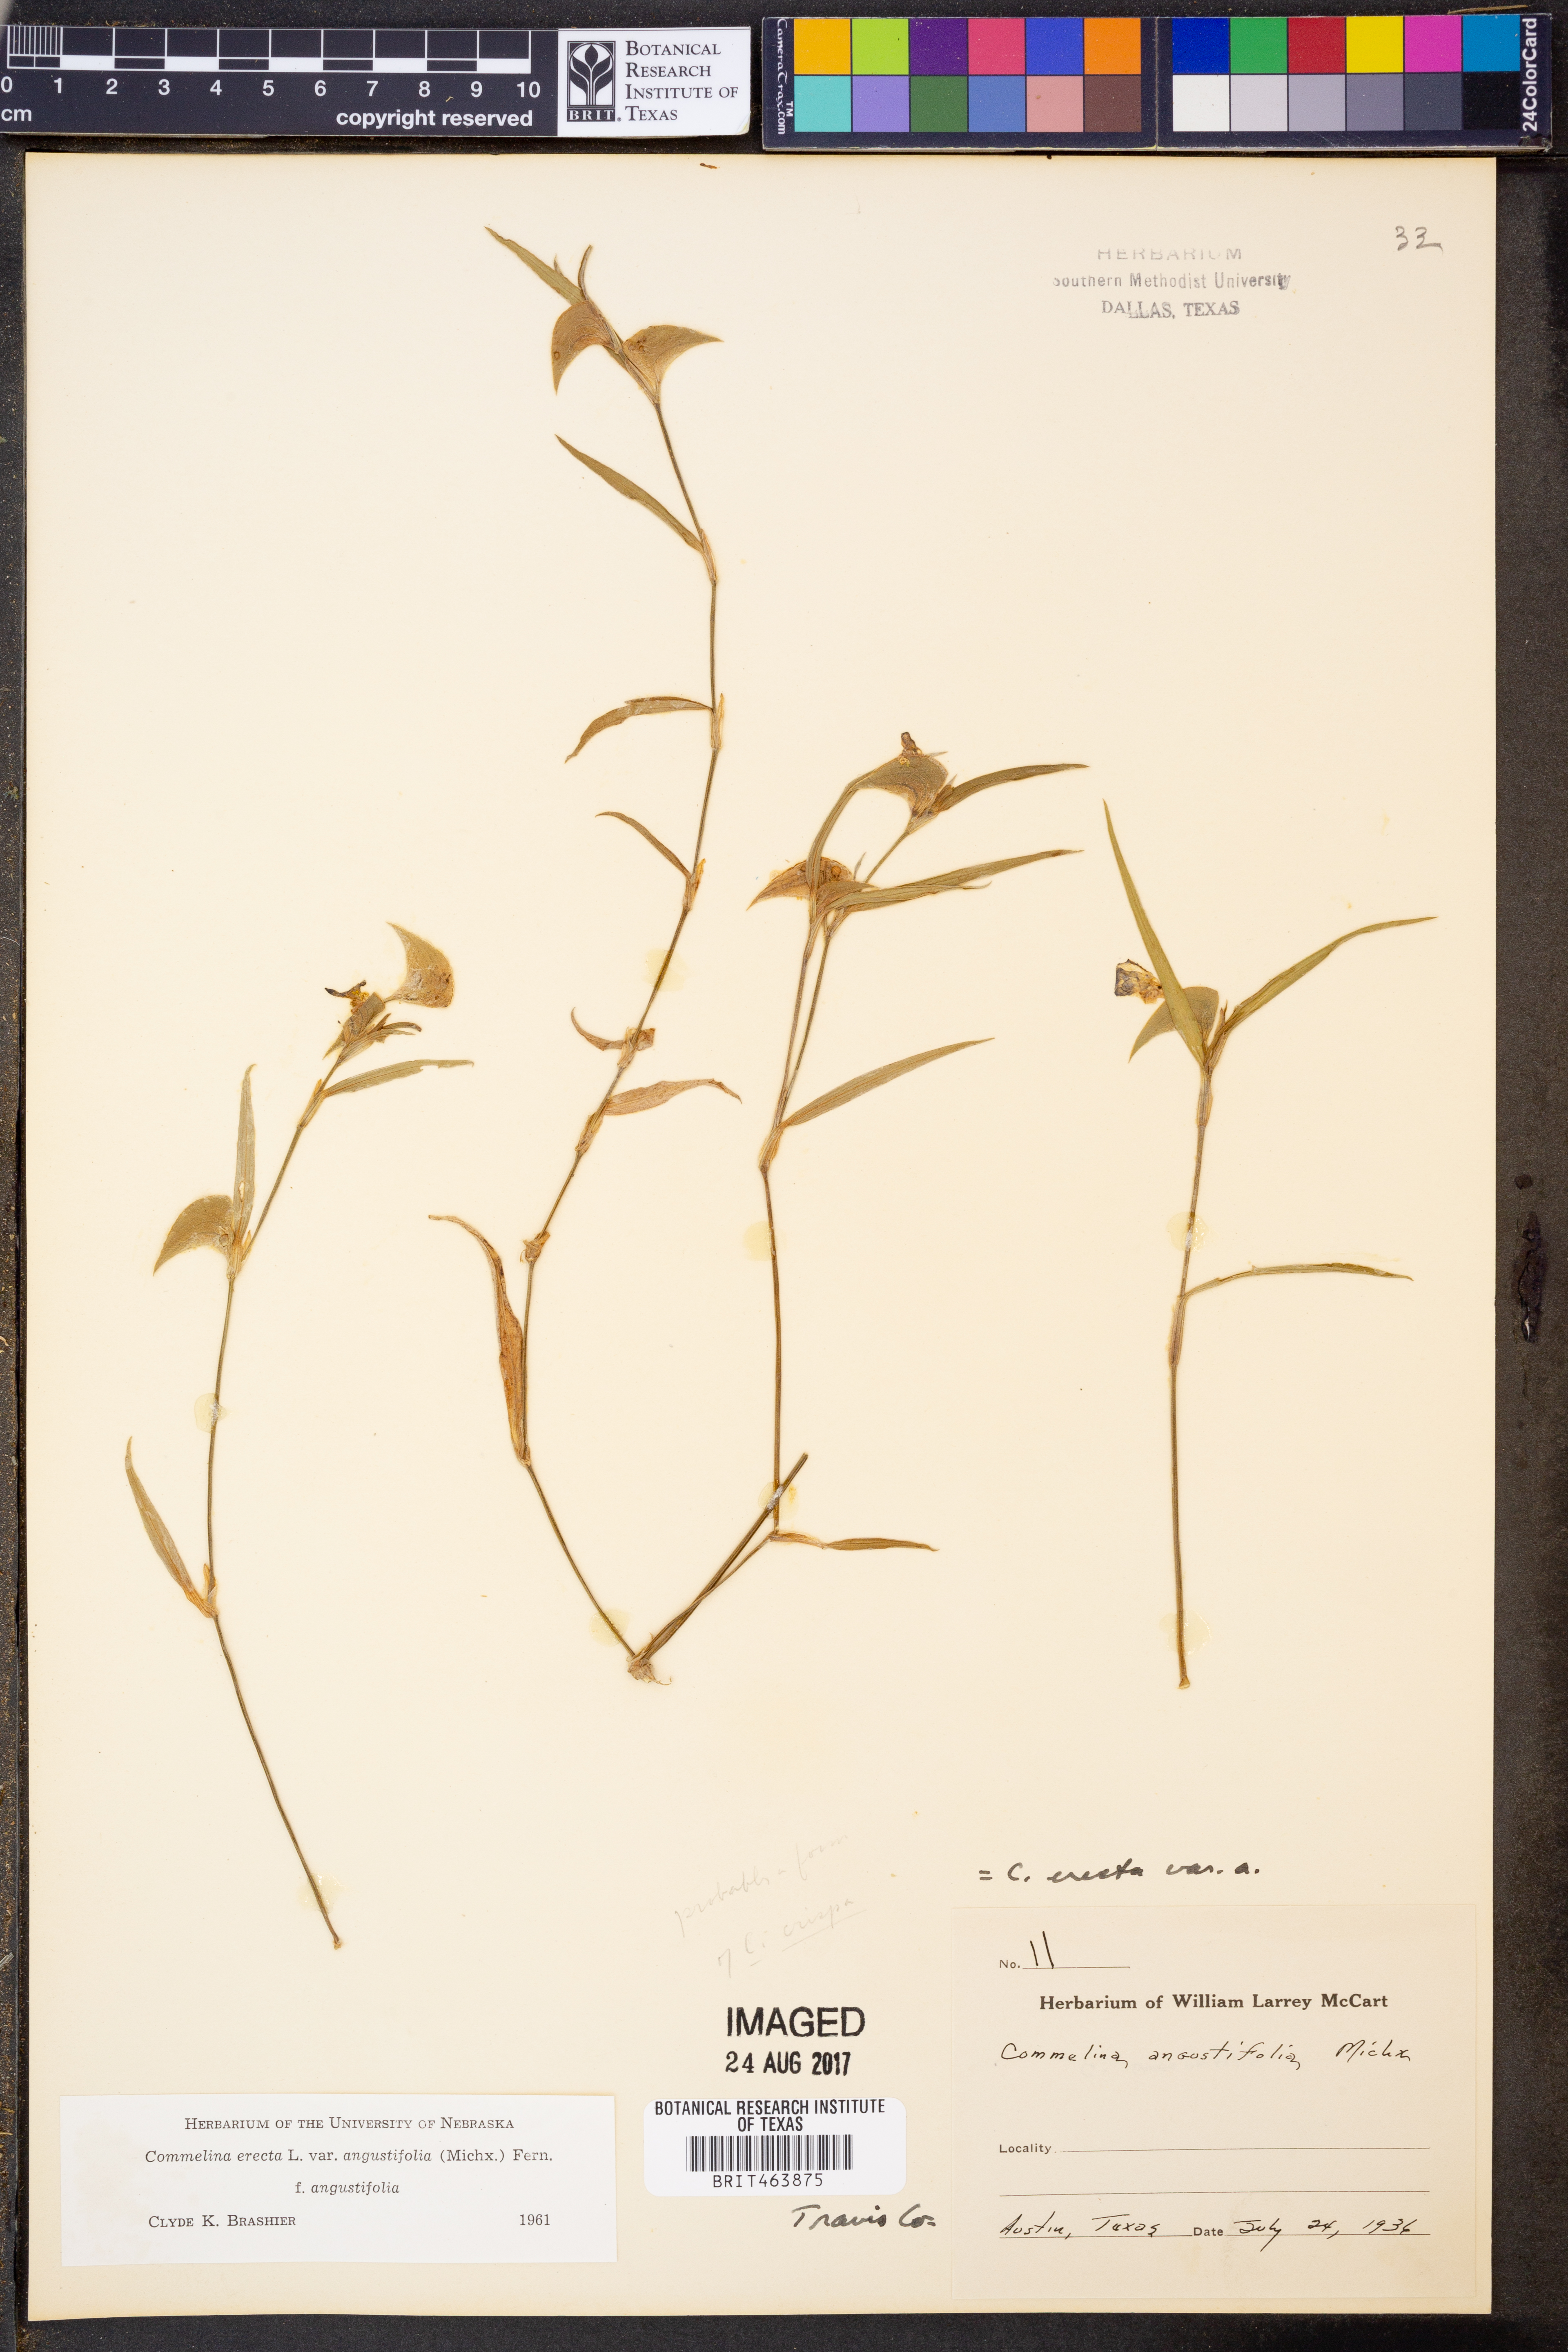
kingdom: Plantae
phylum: Tracheophyta
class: Liliopsida
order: Commelinales
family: Commelinaceae
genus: Commelina
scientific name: Commelina erecta
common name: Blousel blommetjie
